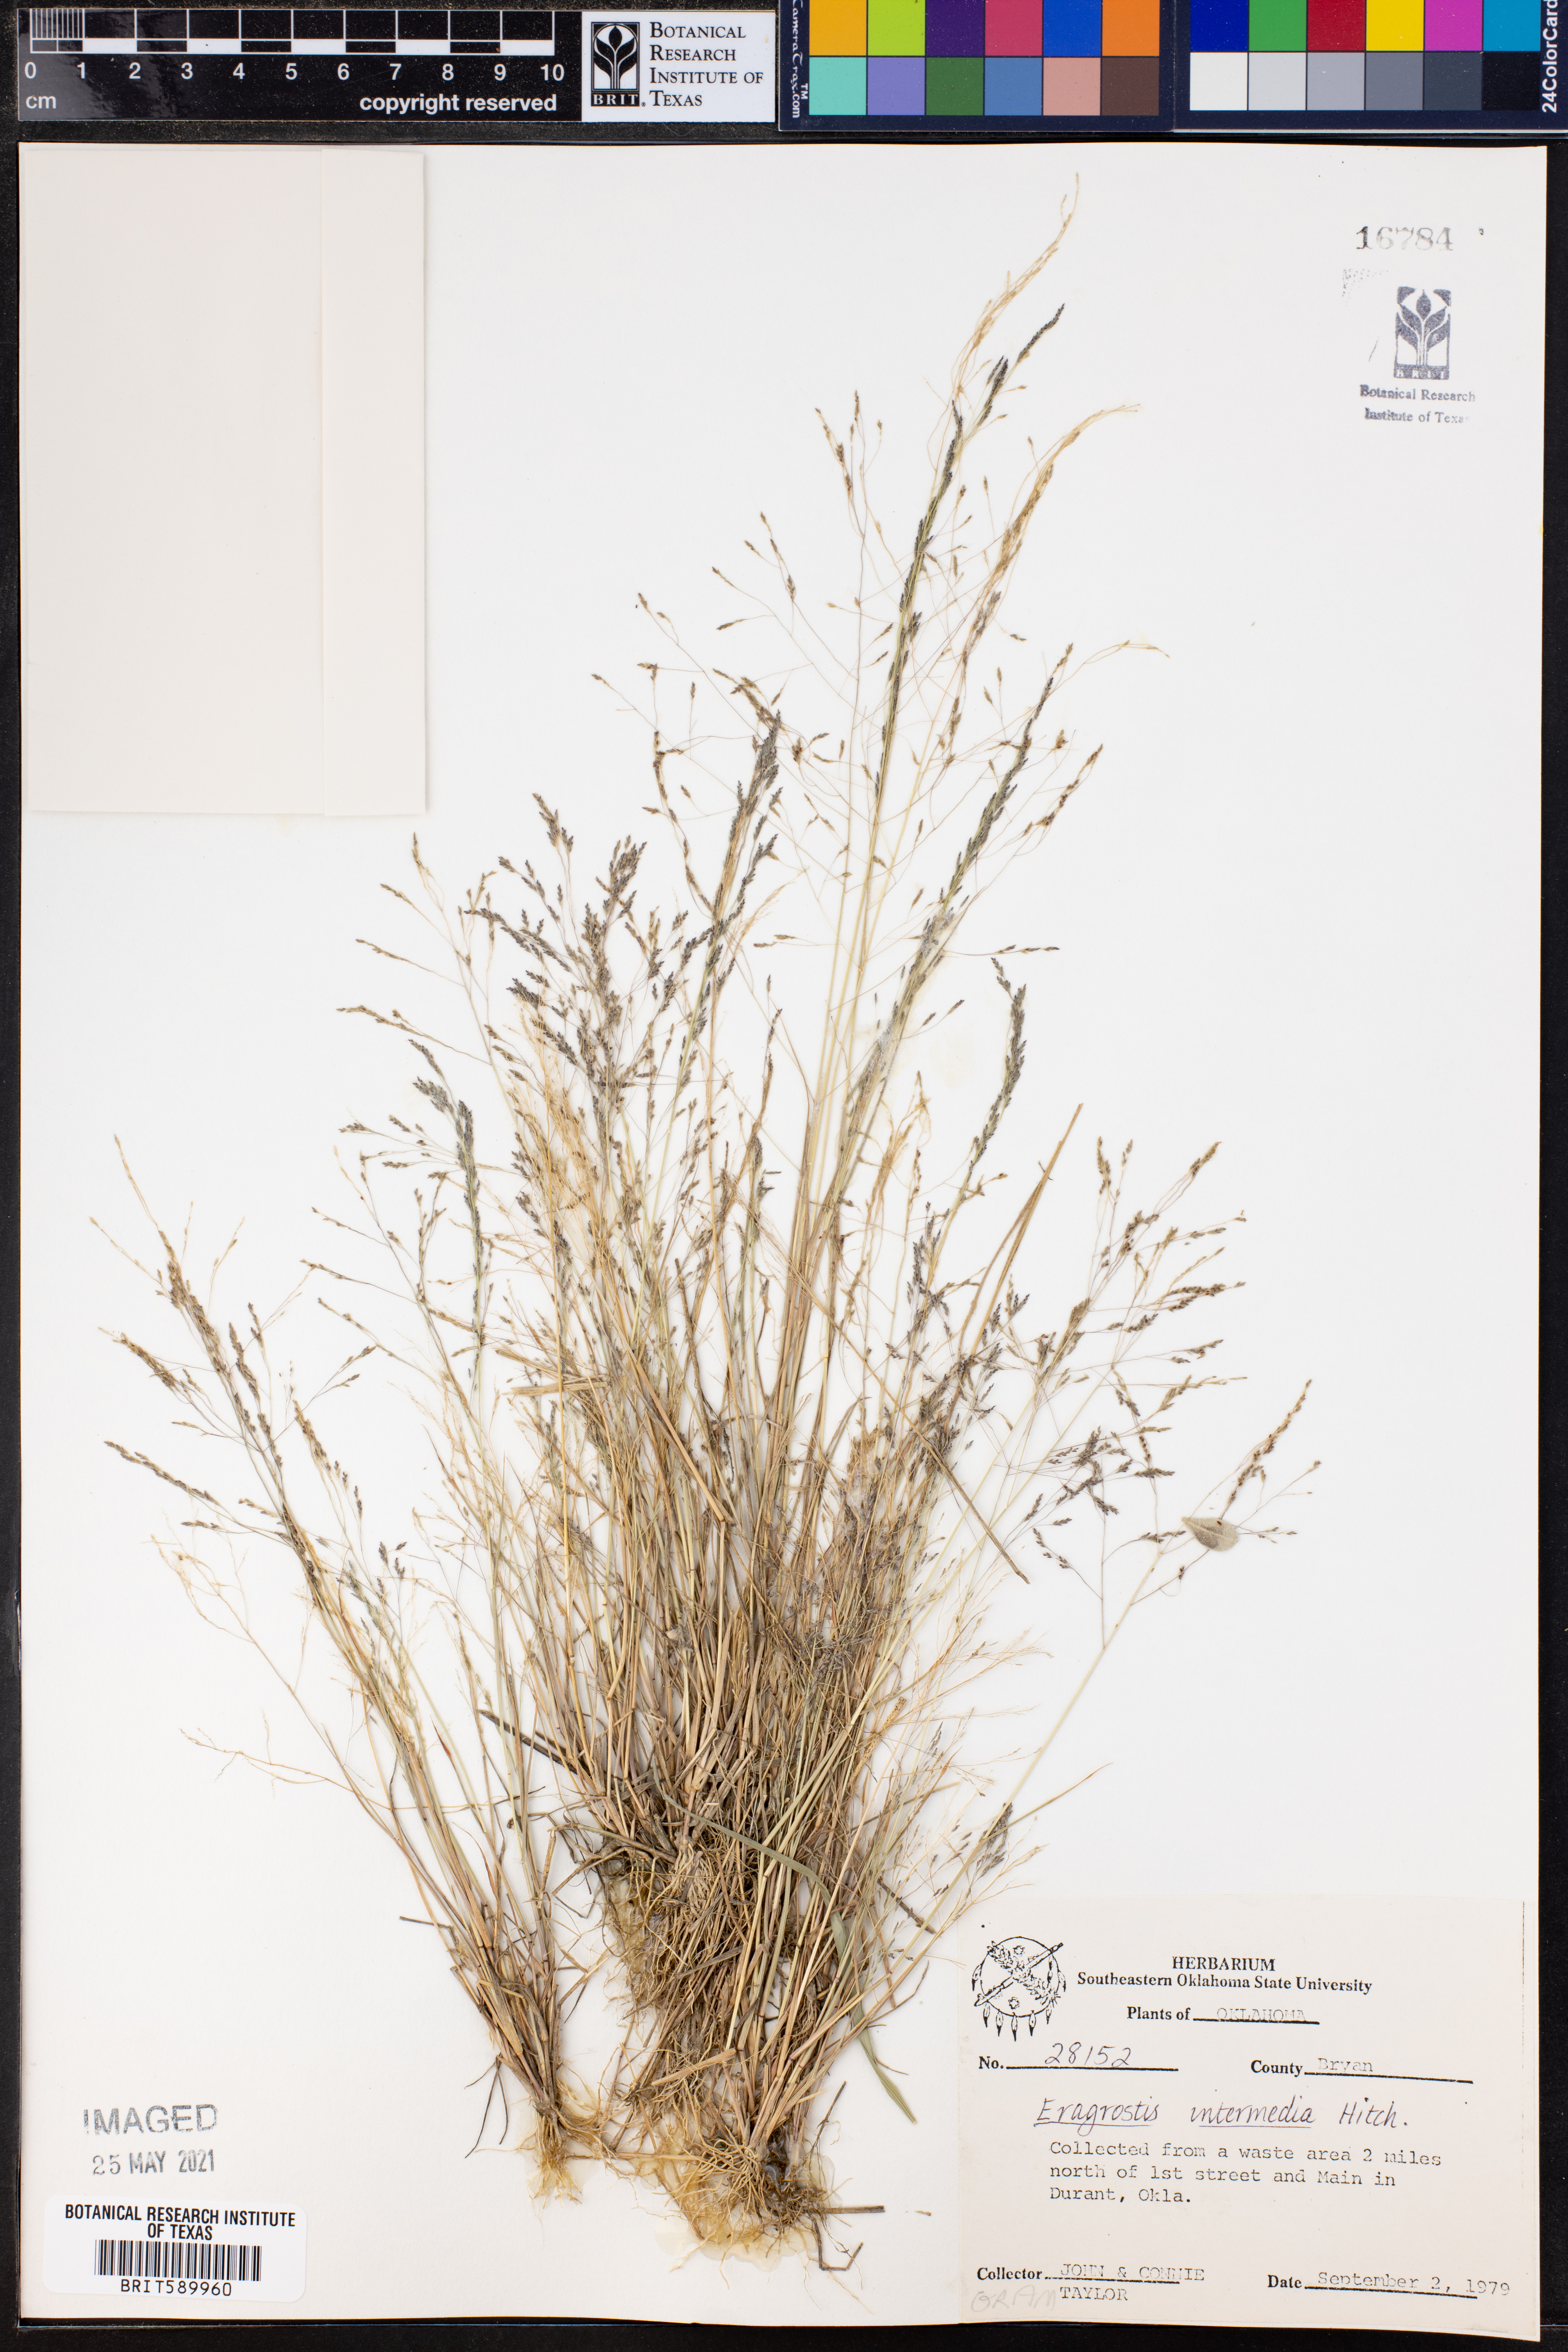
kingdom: Plantae
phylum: Tracheophyta
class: Liliopsida
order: Poales
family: Poaceae
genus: Eragrostis
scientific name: Eragrostis intermedia
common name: Plains love grass
